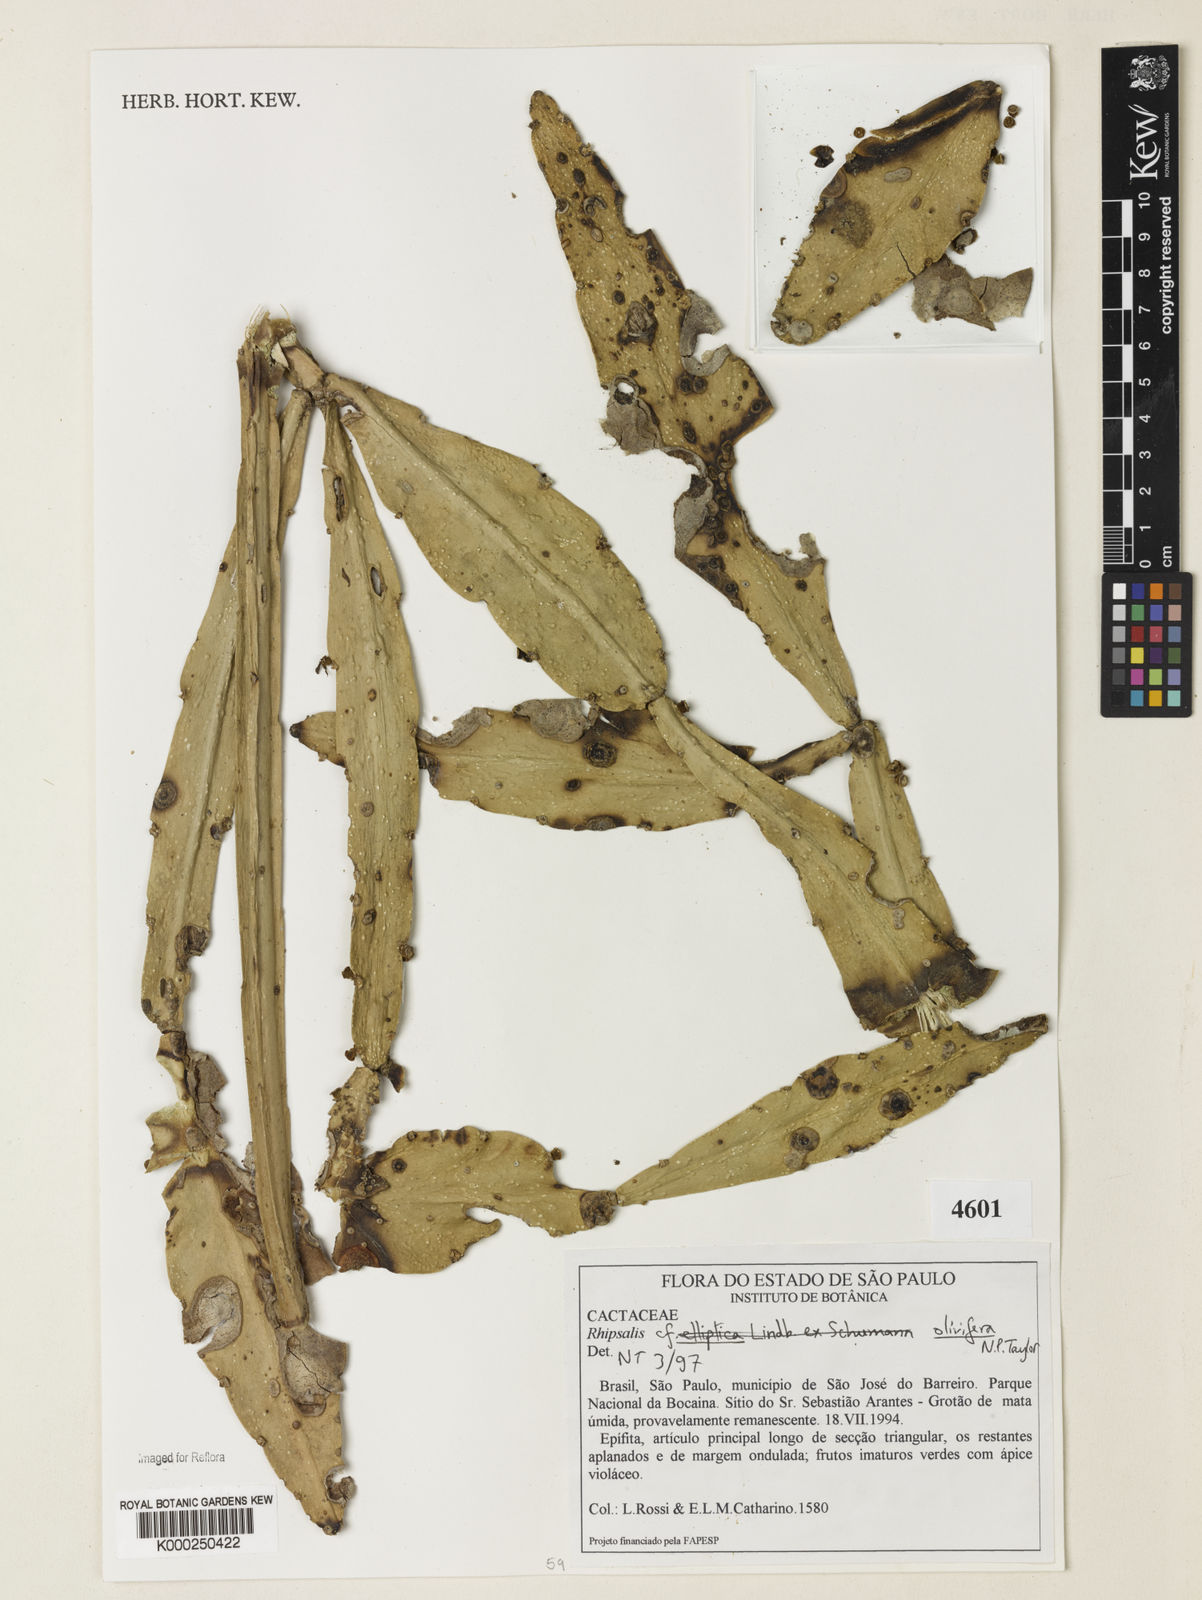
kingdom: Plantae
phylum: Tracheophyta
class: Magnoliopsida
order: Caryophyllales
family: Cactaceae
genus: Rhipsalis
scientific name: Rhipsalis olivifera
